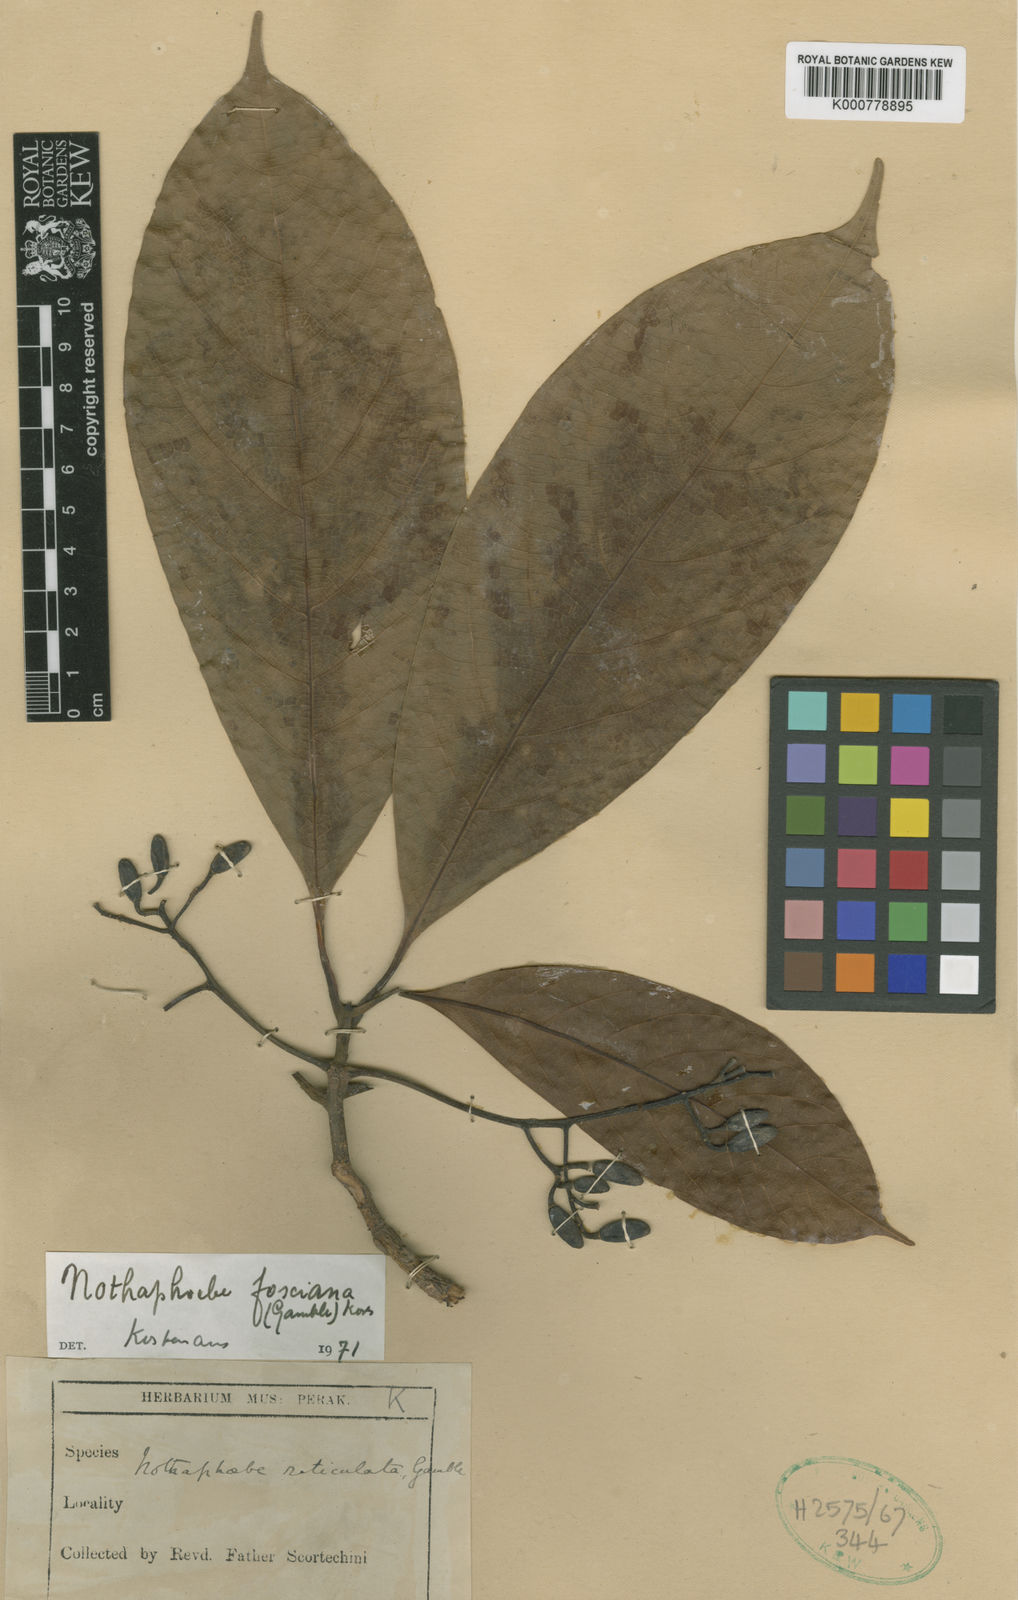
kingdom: Plantae
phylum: Tracheophyta
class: Magnoliopsida
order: Laurales
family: Lauraceae
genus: Nothaphoebe
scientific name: Nothaphoebe
